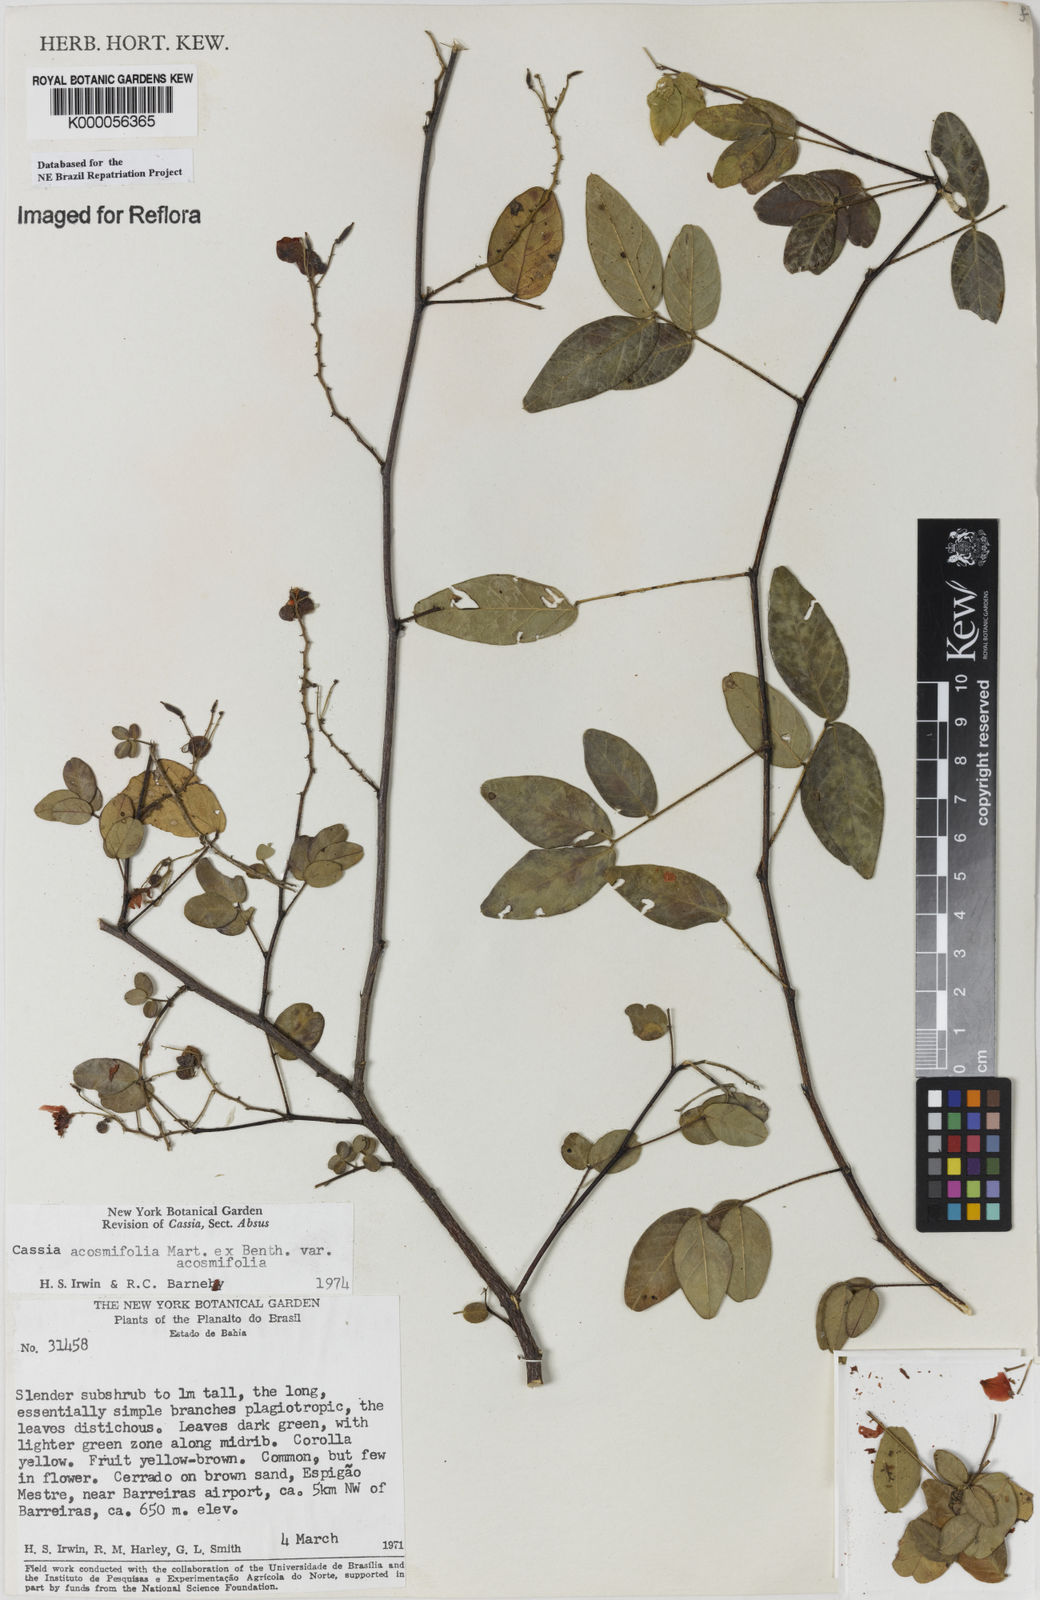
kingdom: Plantae
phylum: Tracheophyta
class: Magnoliopsida
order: Fabales
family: Fabaceae
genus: Chamaecrista
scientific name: Chamaecrista acosmifolia
